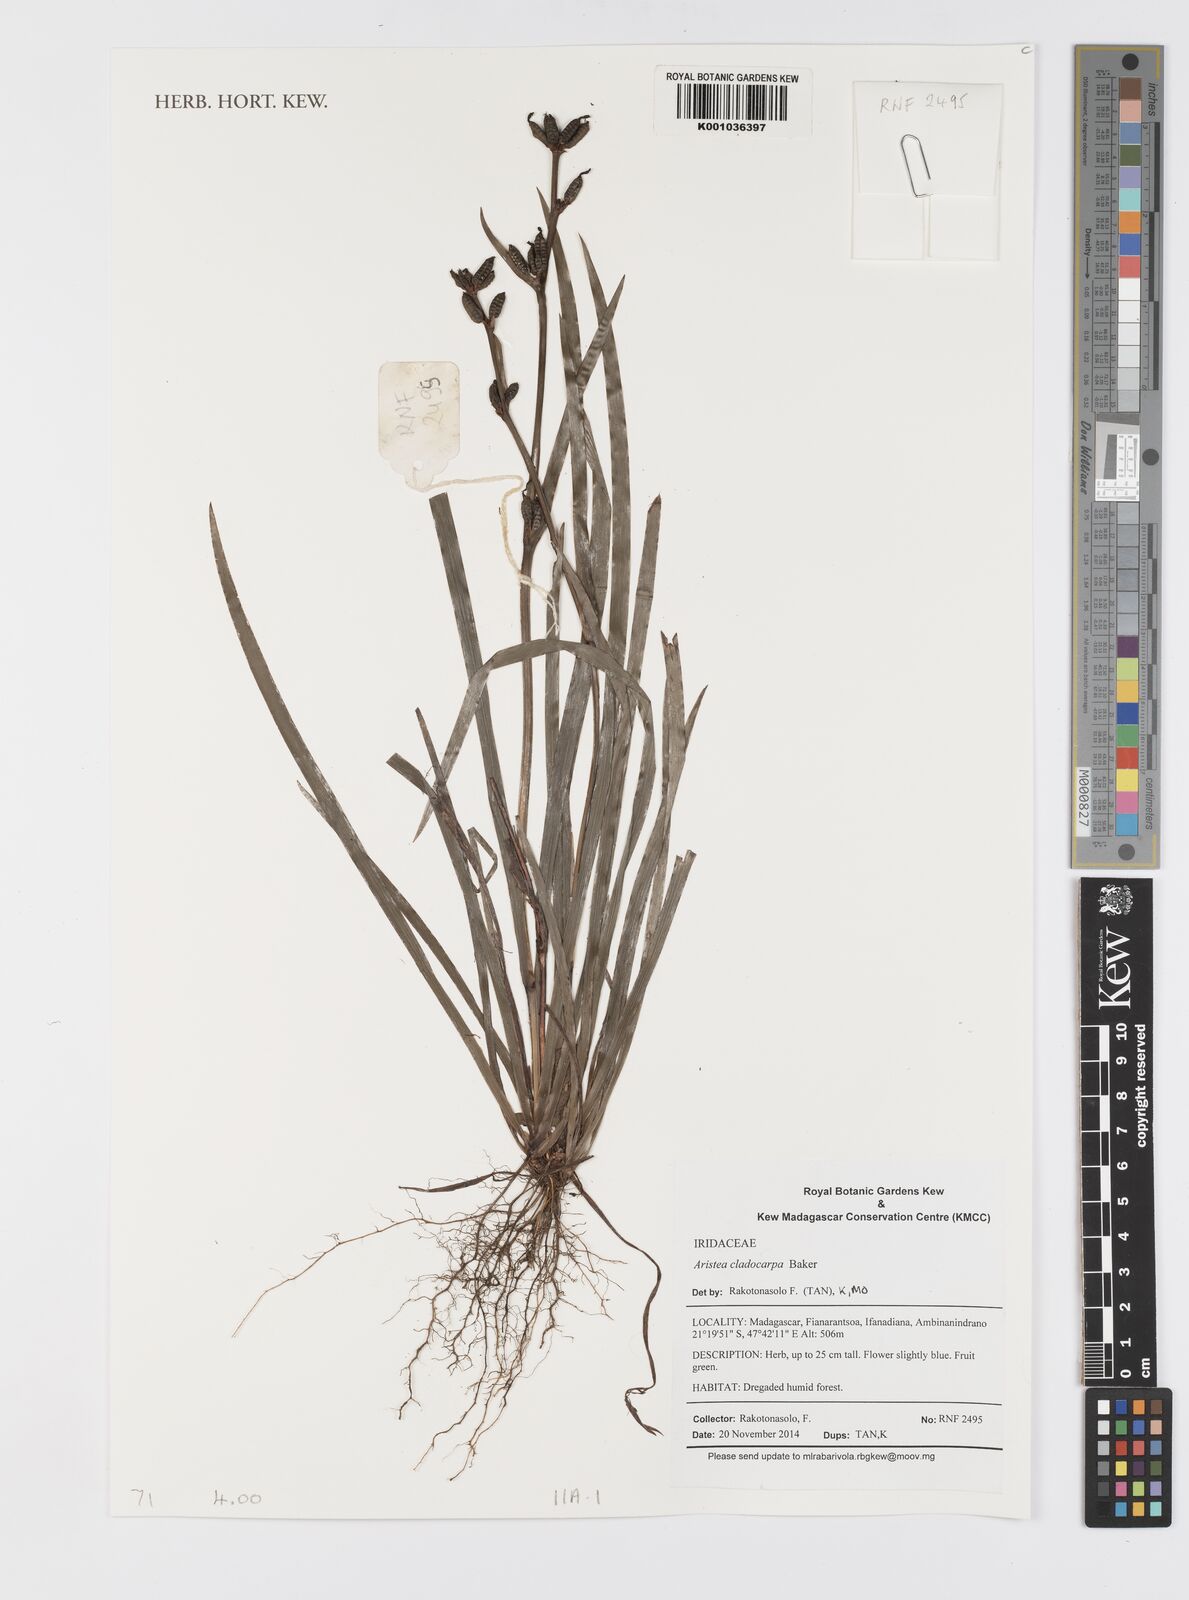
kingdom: Plantae
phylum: Tracheophyta
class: Liliopsida
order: Asparagales
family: Iridaceae
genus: Aristea
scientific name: Aristea cladocarpa
